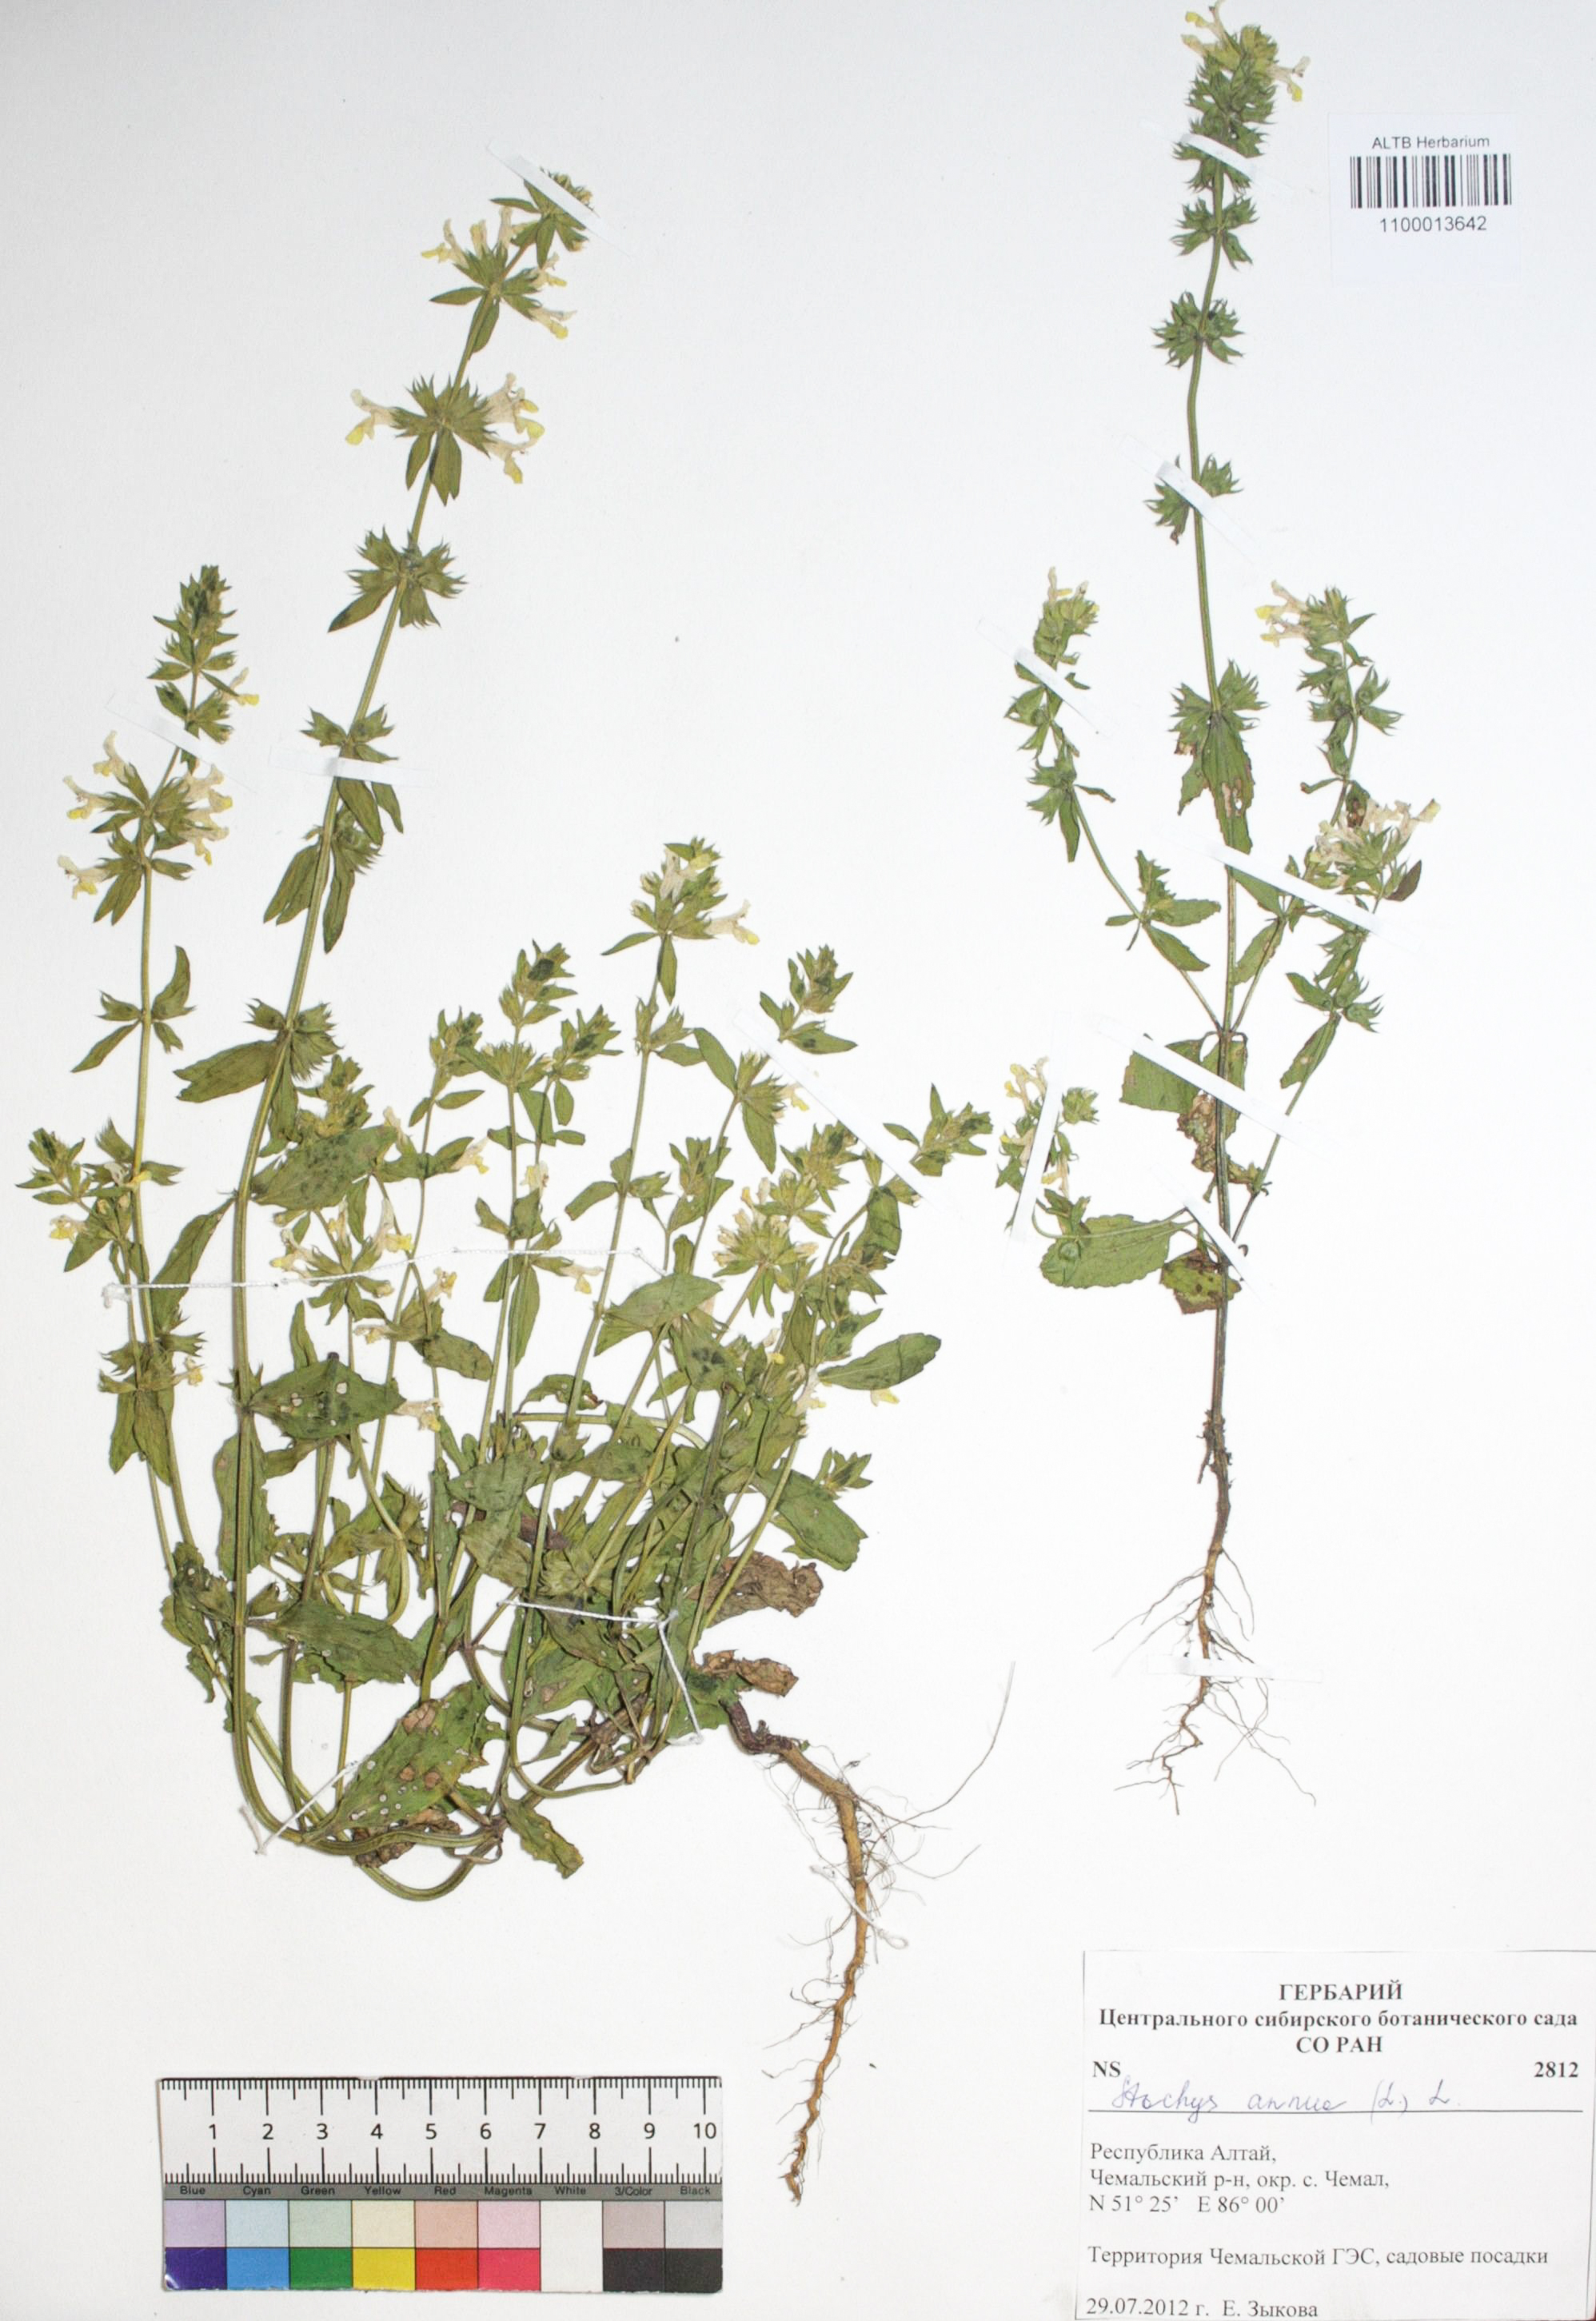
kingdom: Plantae
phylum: Tracheophyta
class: Magnoliopsida
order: Lamiales
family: Lamiaceae
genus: Stachys
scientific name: Stachys annua
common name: Annual yellow-woundwort
